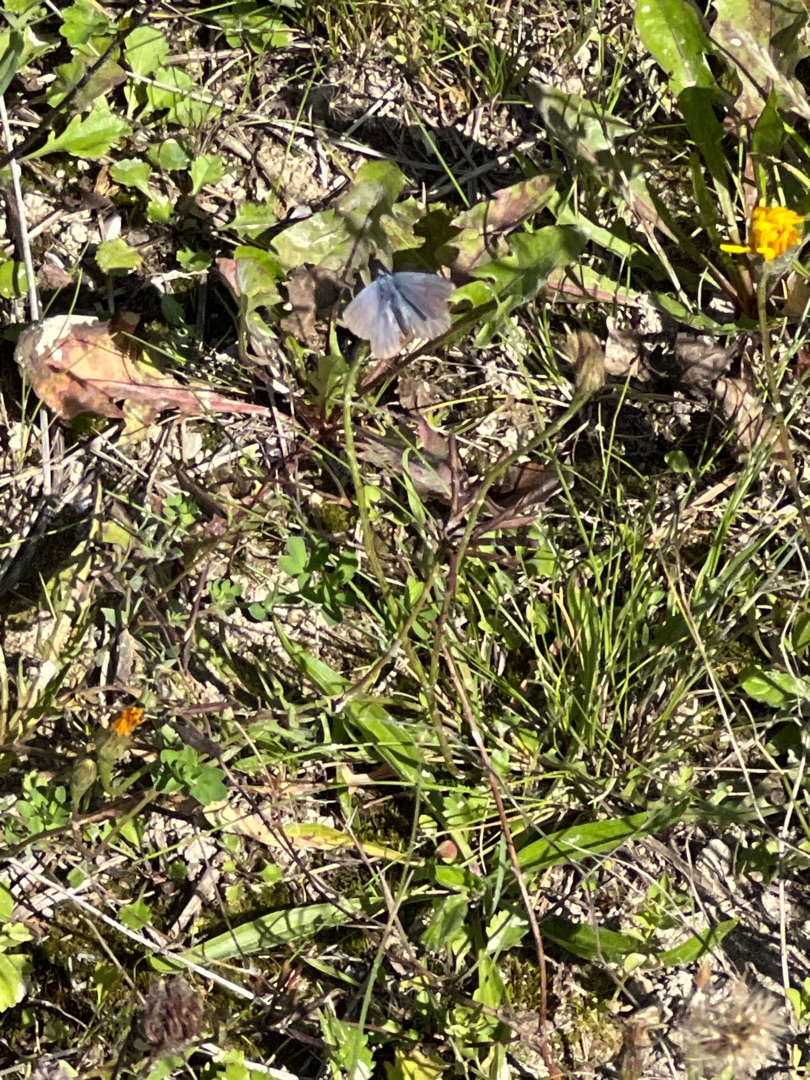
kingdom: Animalia
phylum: Arthropoda
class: Insecta
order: Lepidoptera
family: Lycaenidae
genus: Polyommatus
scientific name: Polyommatus icarus
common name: Almindelig blåfugl
